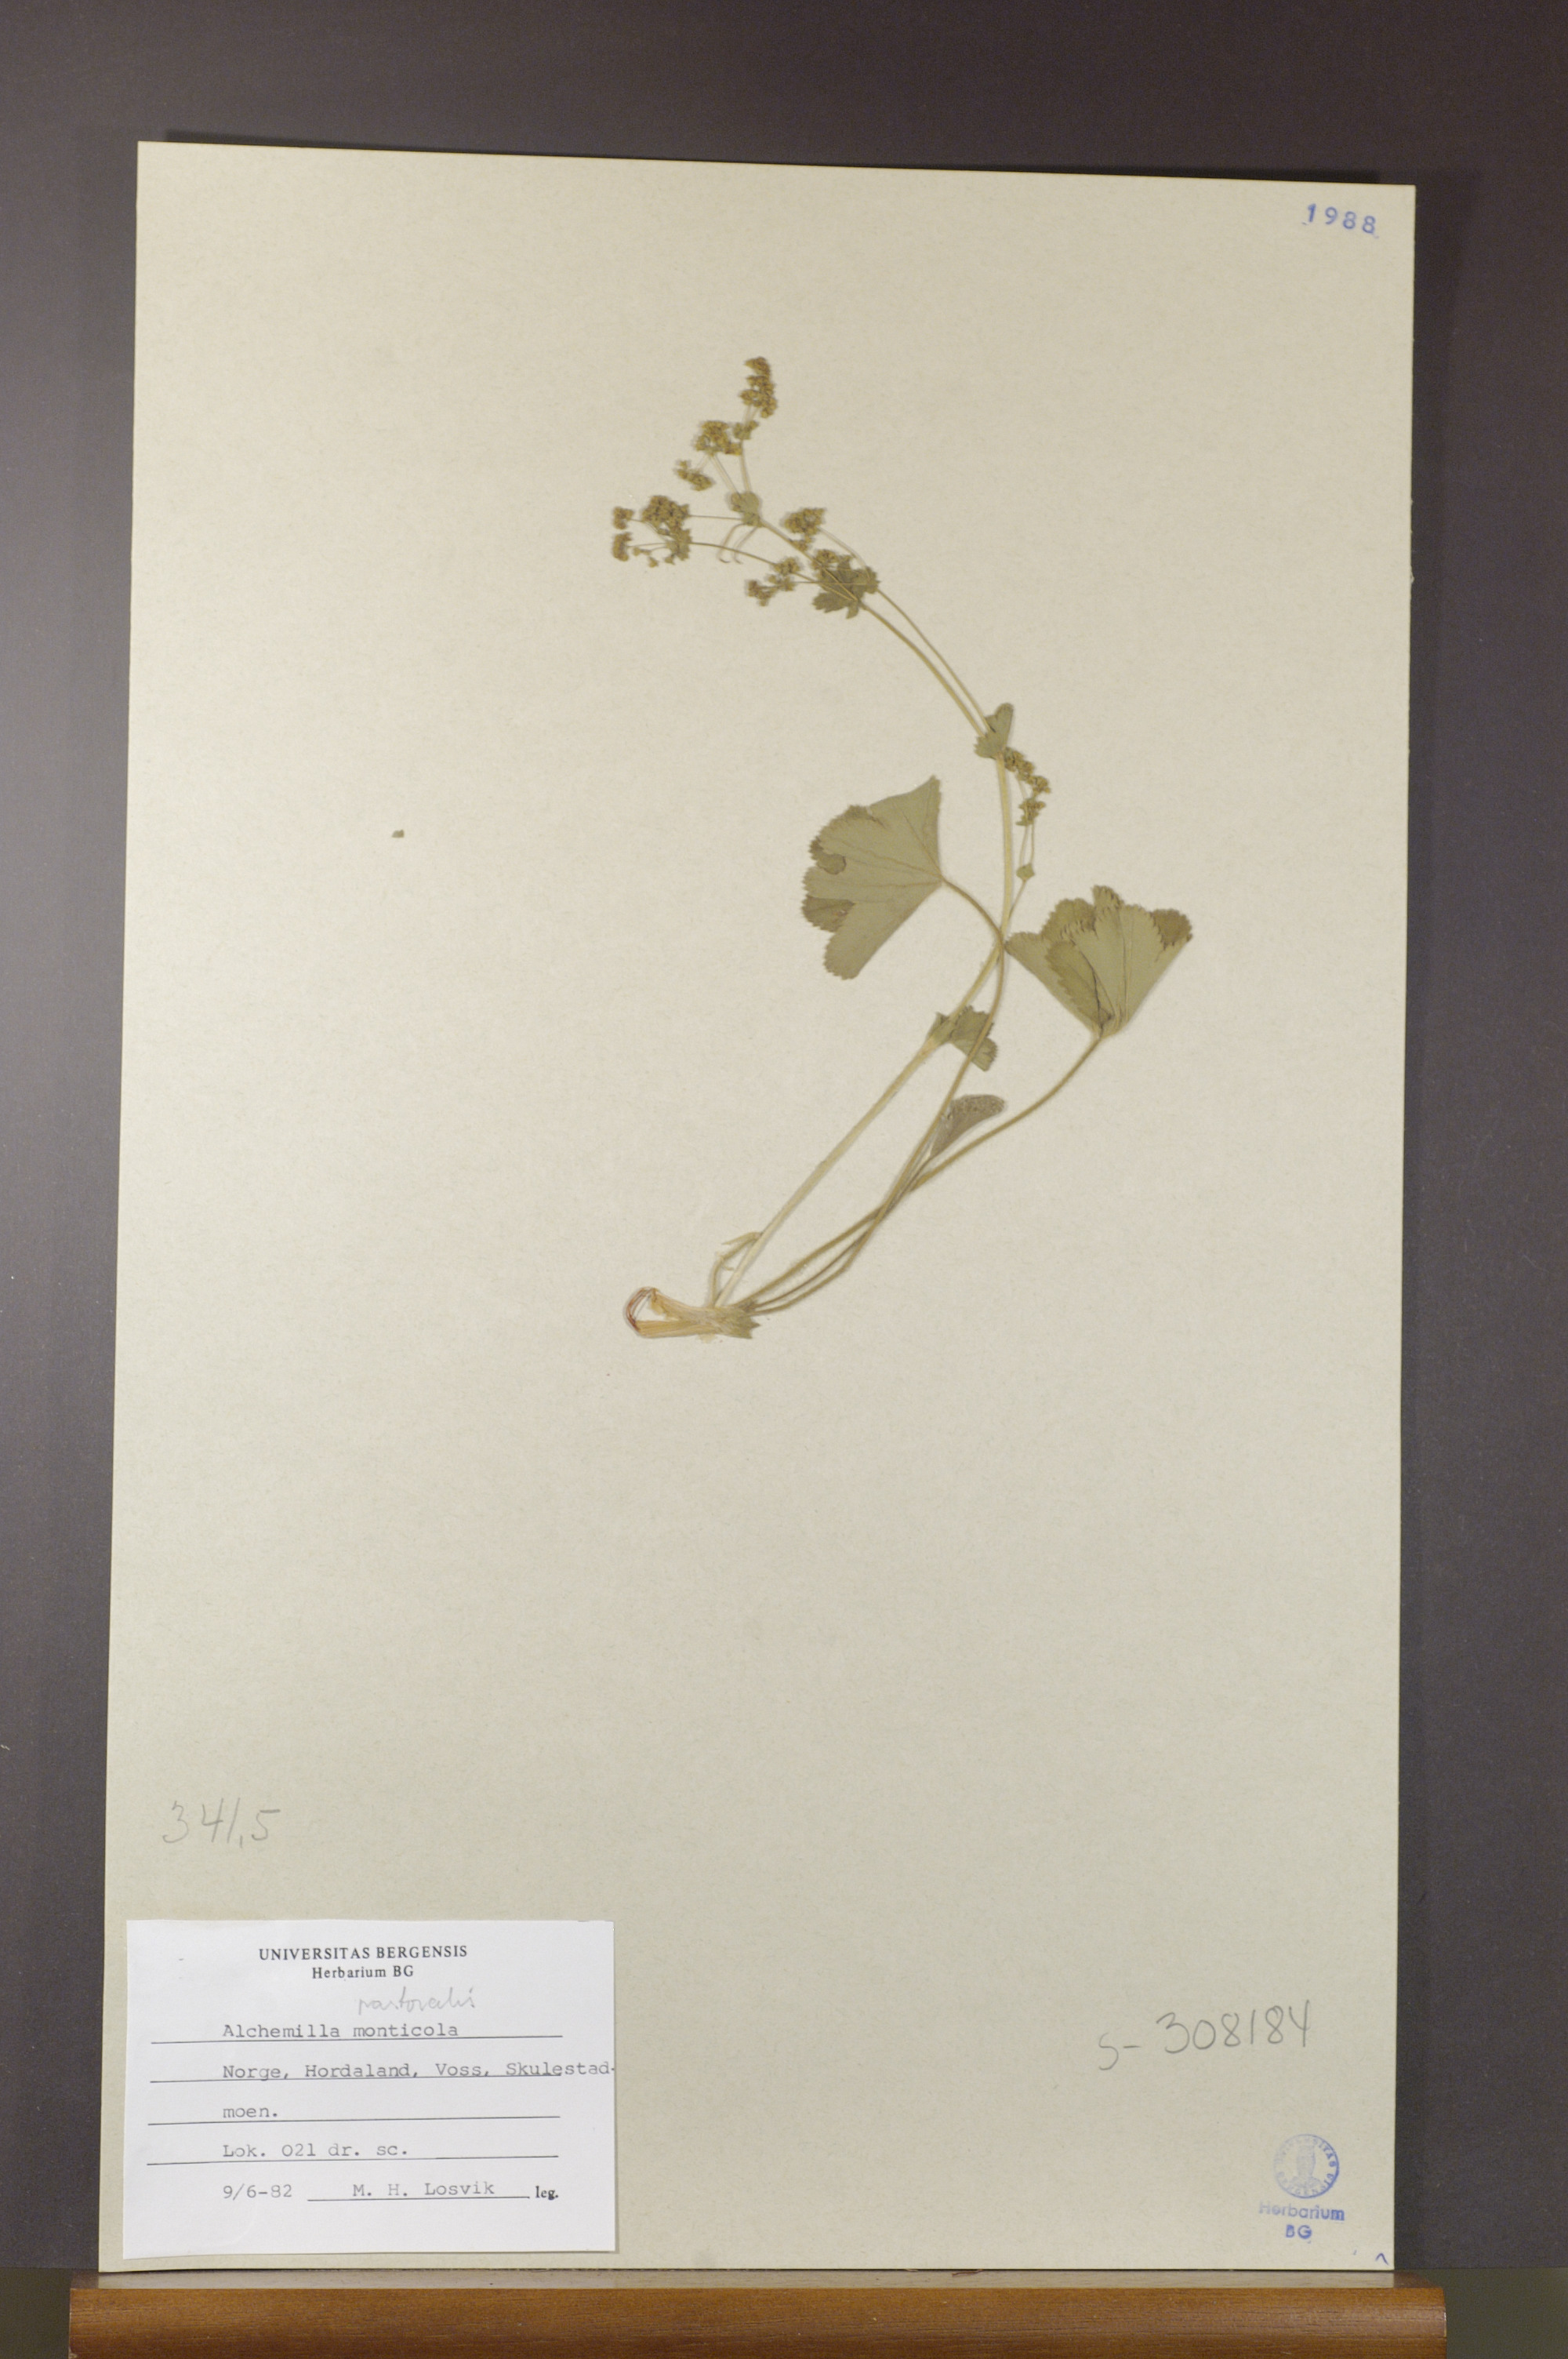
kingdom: Plantae
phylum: Tracheophyta
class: Magnoliopsida
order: Rosales
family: Rosaceae
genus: Alchemilla
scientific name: Alchemilla monticola
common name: Hairy lady's mantle
